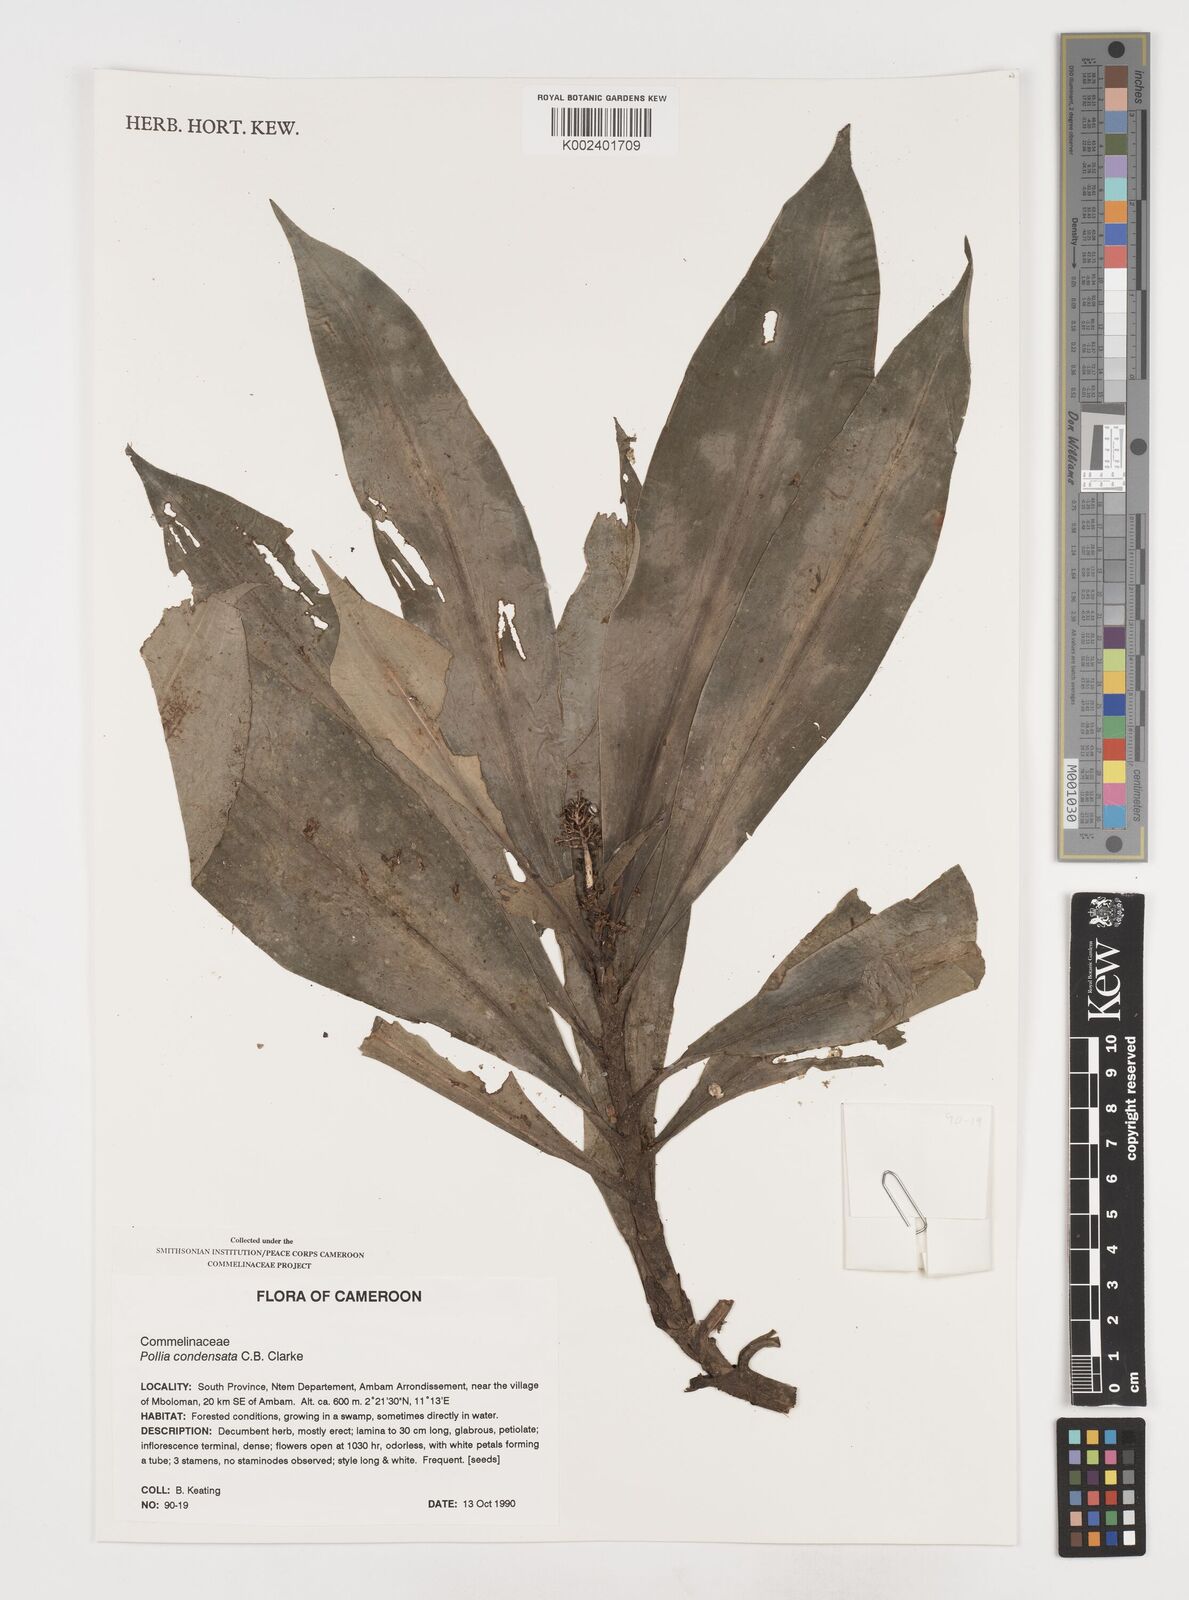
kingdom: Plantae
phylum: Tracheophyta
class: Liliopsida
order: Commelinales
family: Commelinaceae
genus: Pollia
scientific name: Pollia condensata
